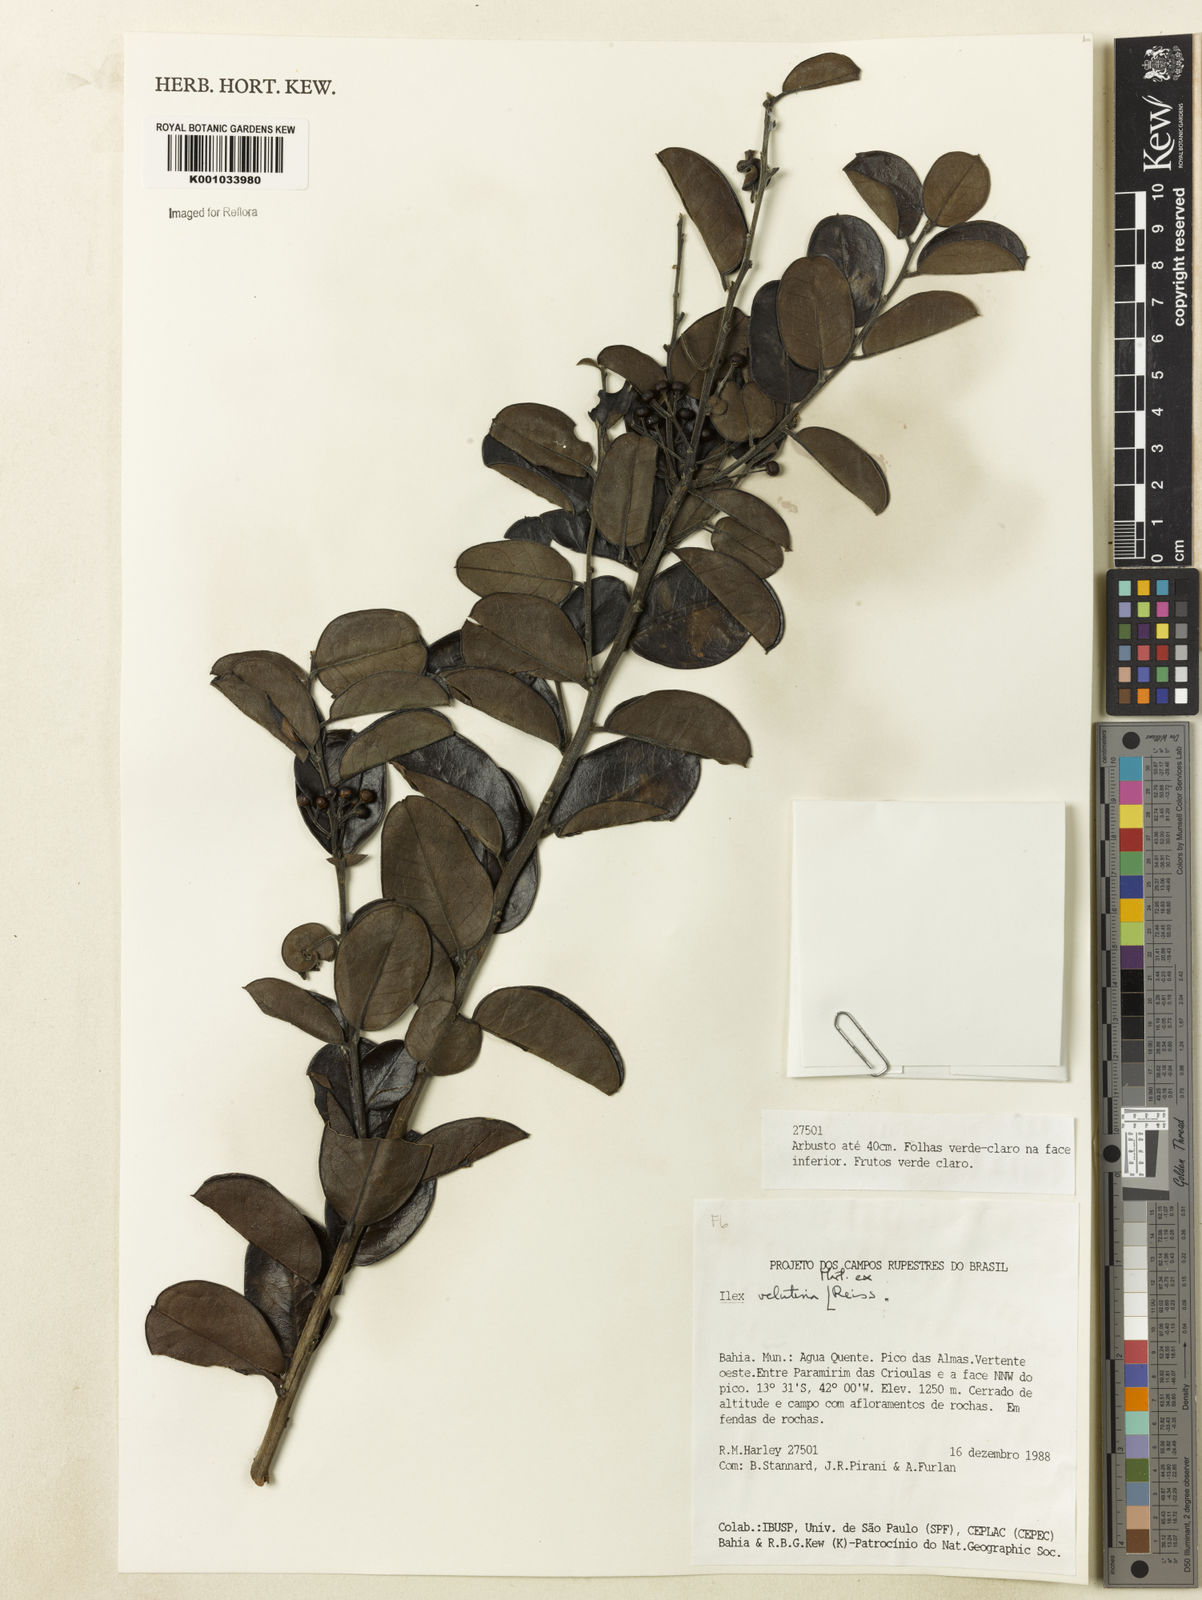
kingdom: Plantae
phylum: Tracheophyta
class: Magnoliopsida
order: Aquifoliales
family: Aquifoliaceae
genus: Ilex
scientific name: Ilex velutina
